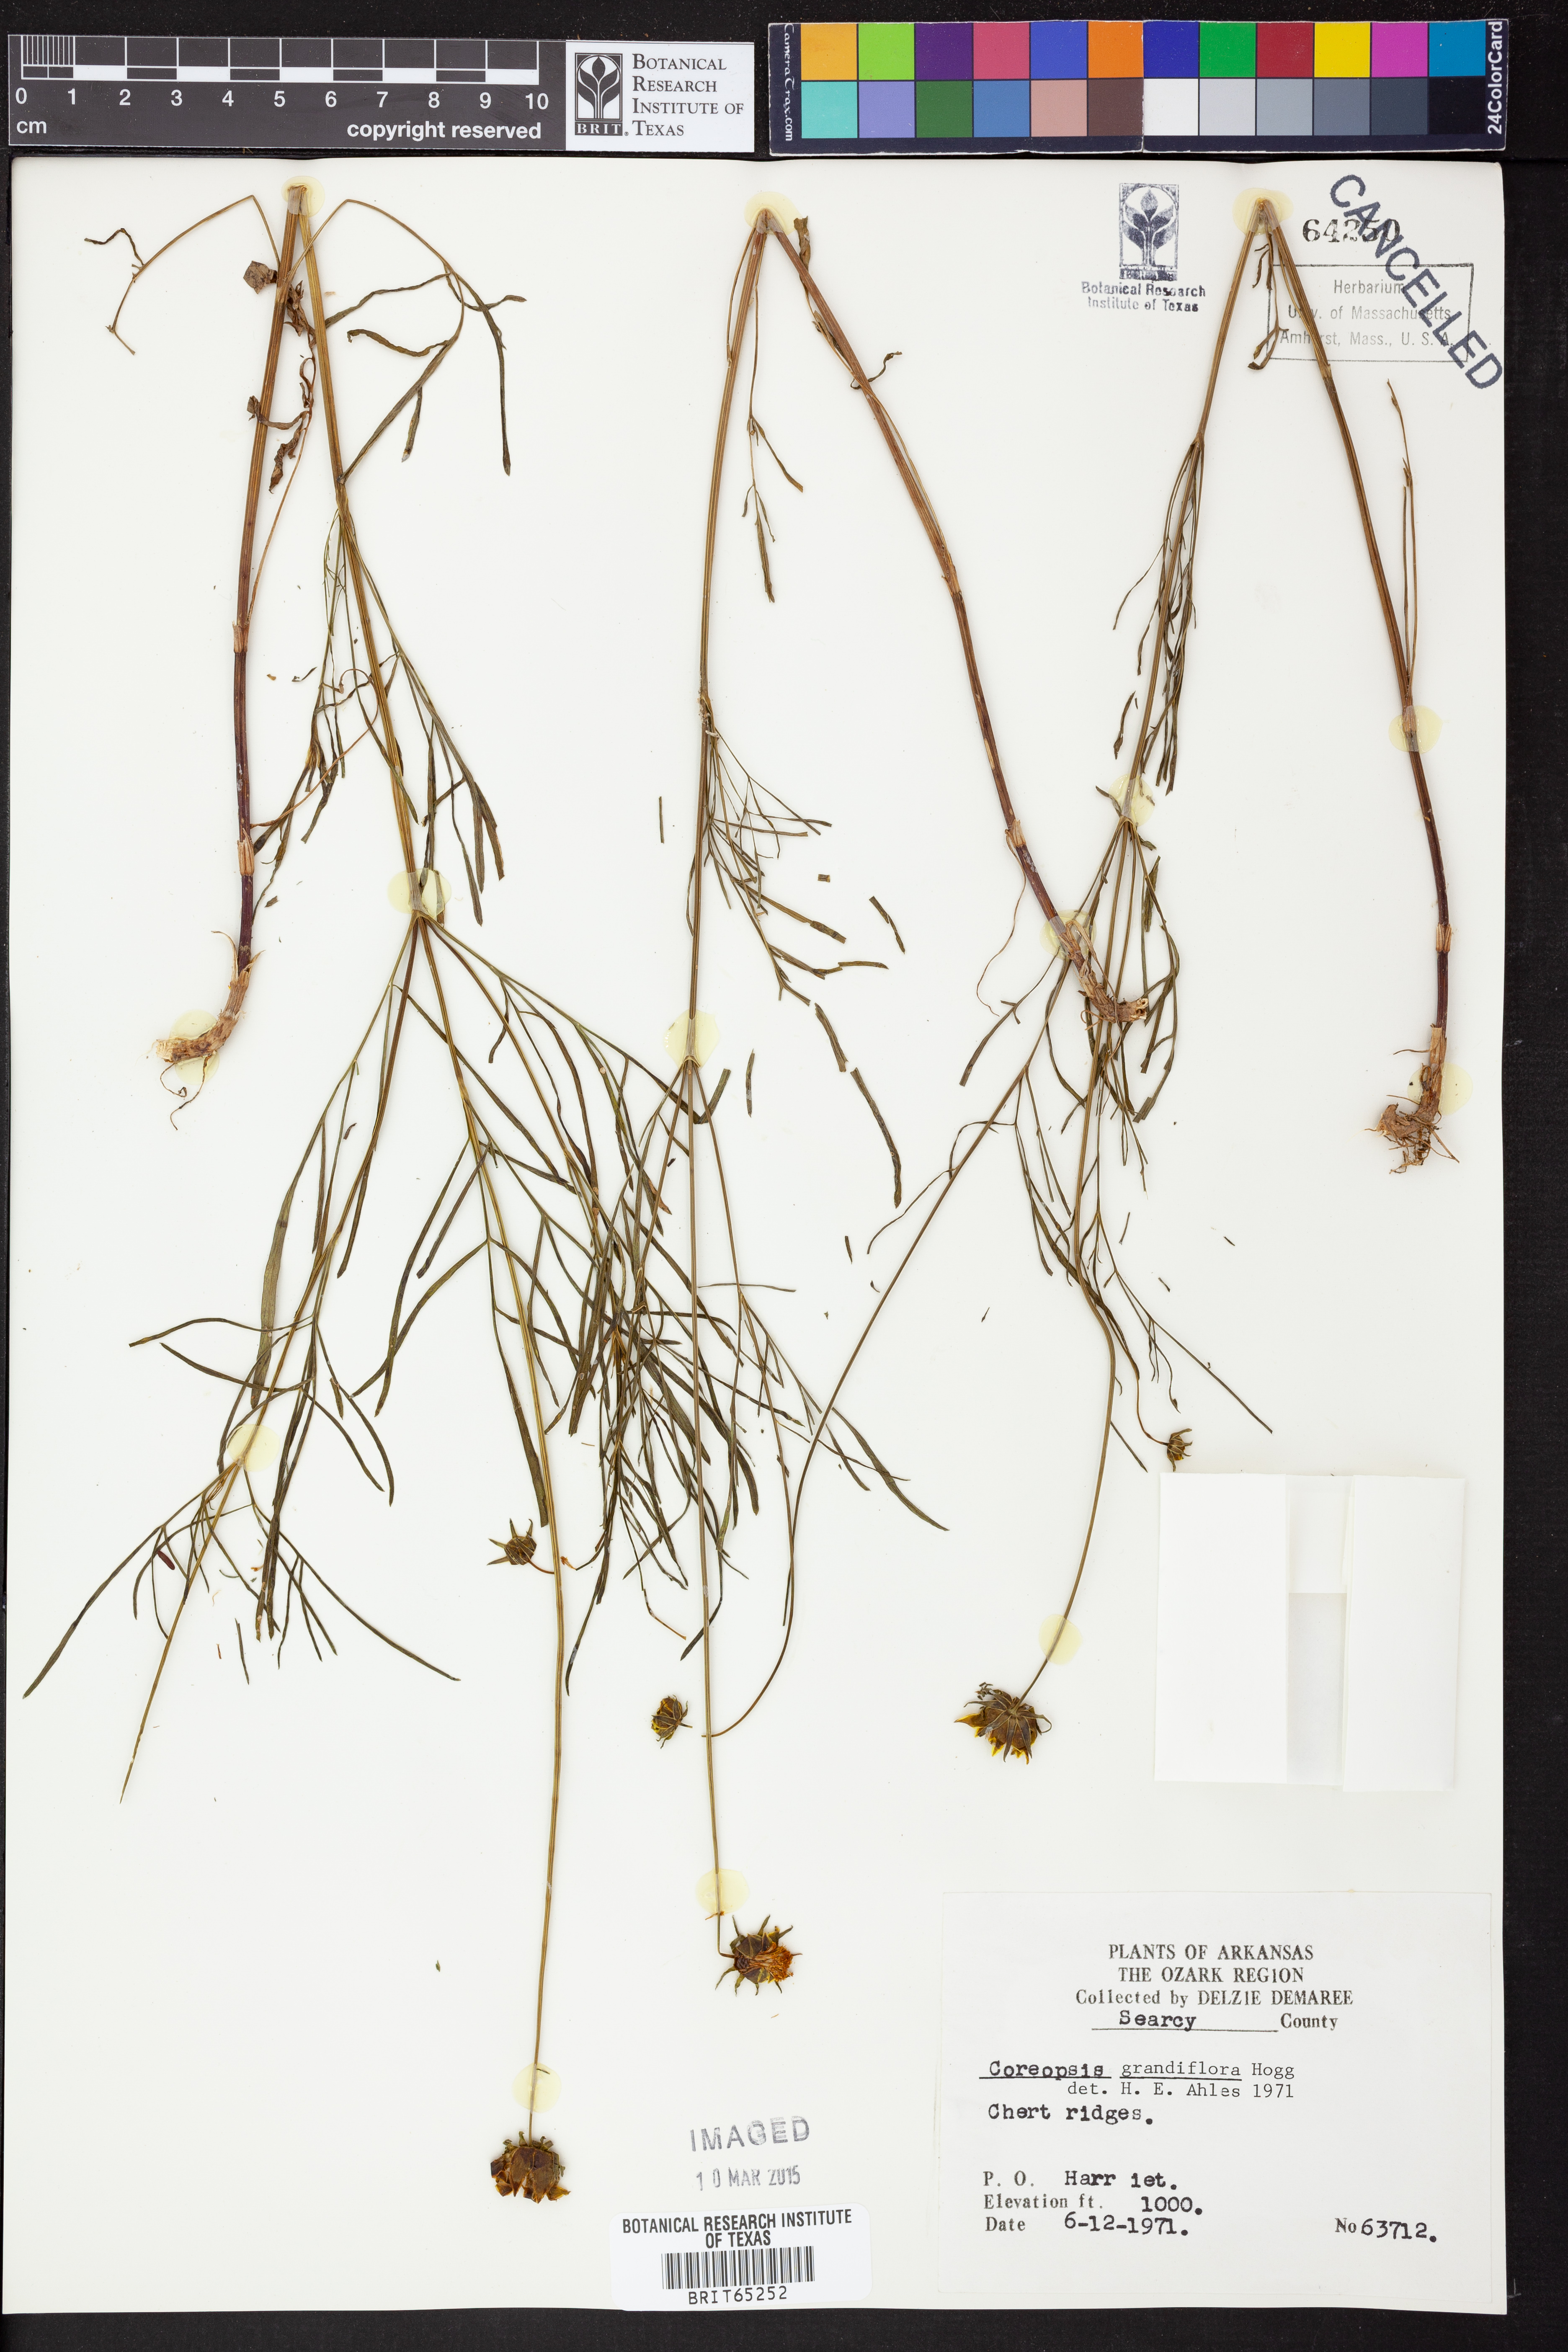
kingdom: Plantae
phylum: Tracheophyta
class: Magnoliopsida
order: Asterales
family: Asteraceae
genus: Coreopsis
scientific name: Coreopsis grandiflora
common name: Large-flowered tickseed
